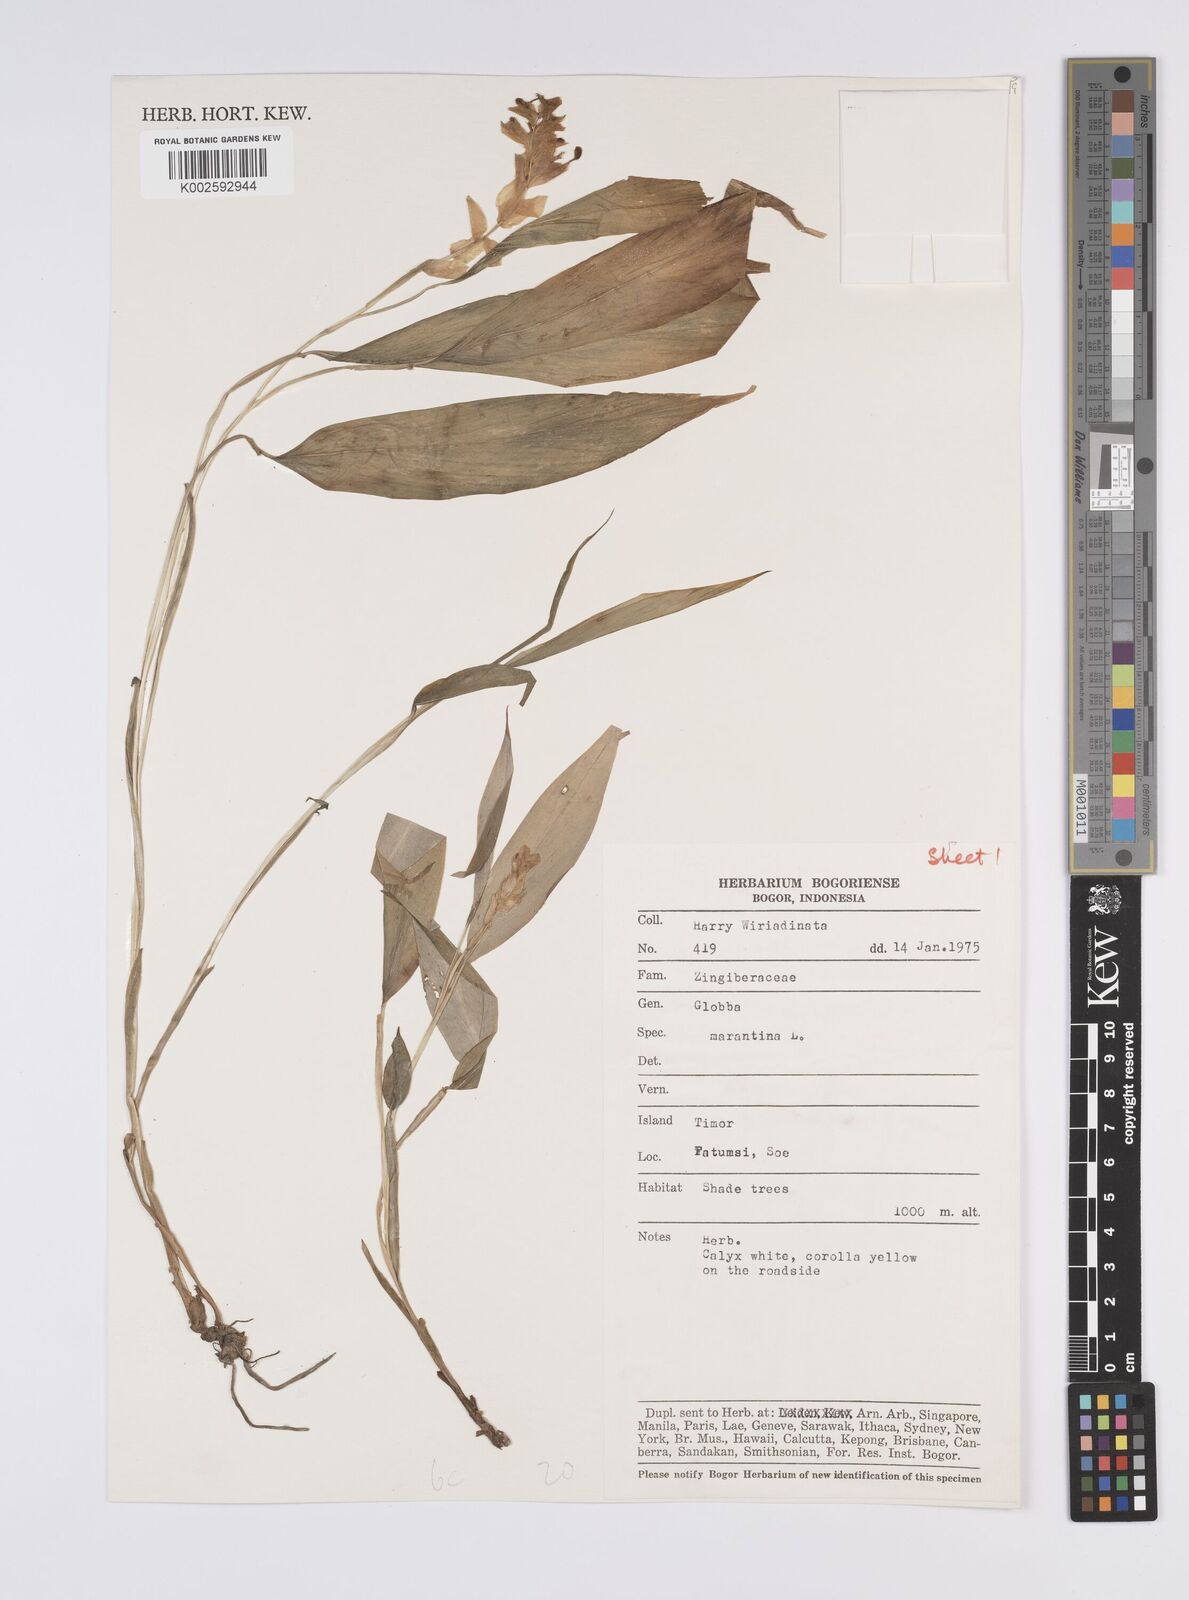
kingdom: Plantae
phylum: Tracheophyta
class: Liliopsida
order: Zingiberales
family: Zingiberaceae
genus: Globba
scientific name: Globba marantina
